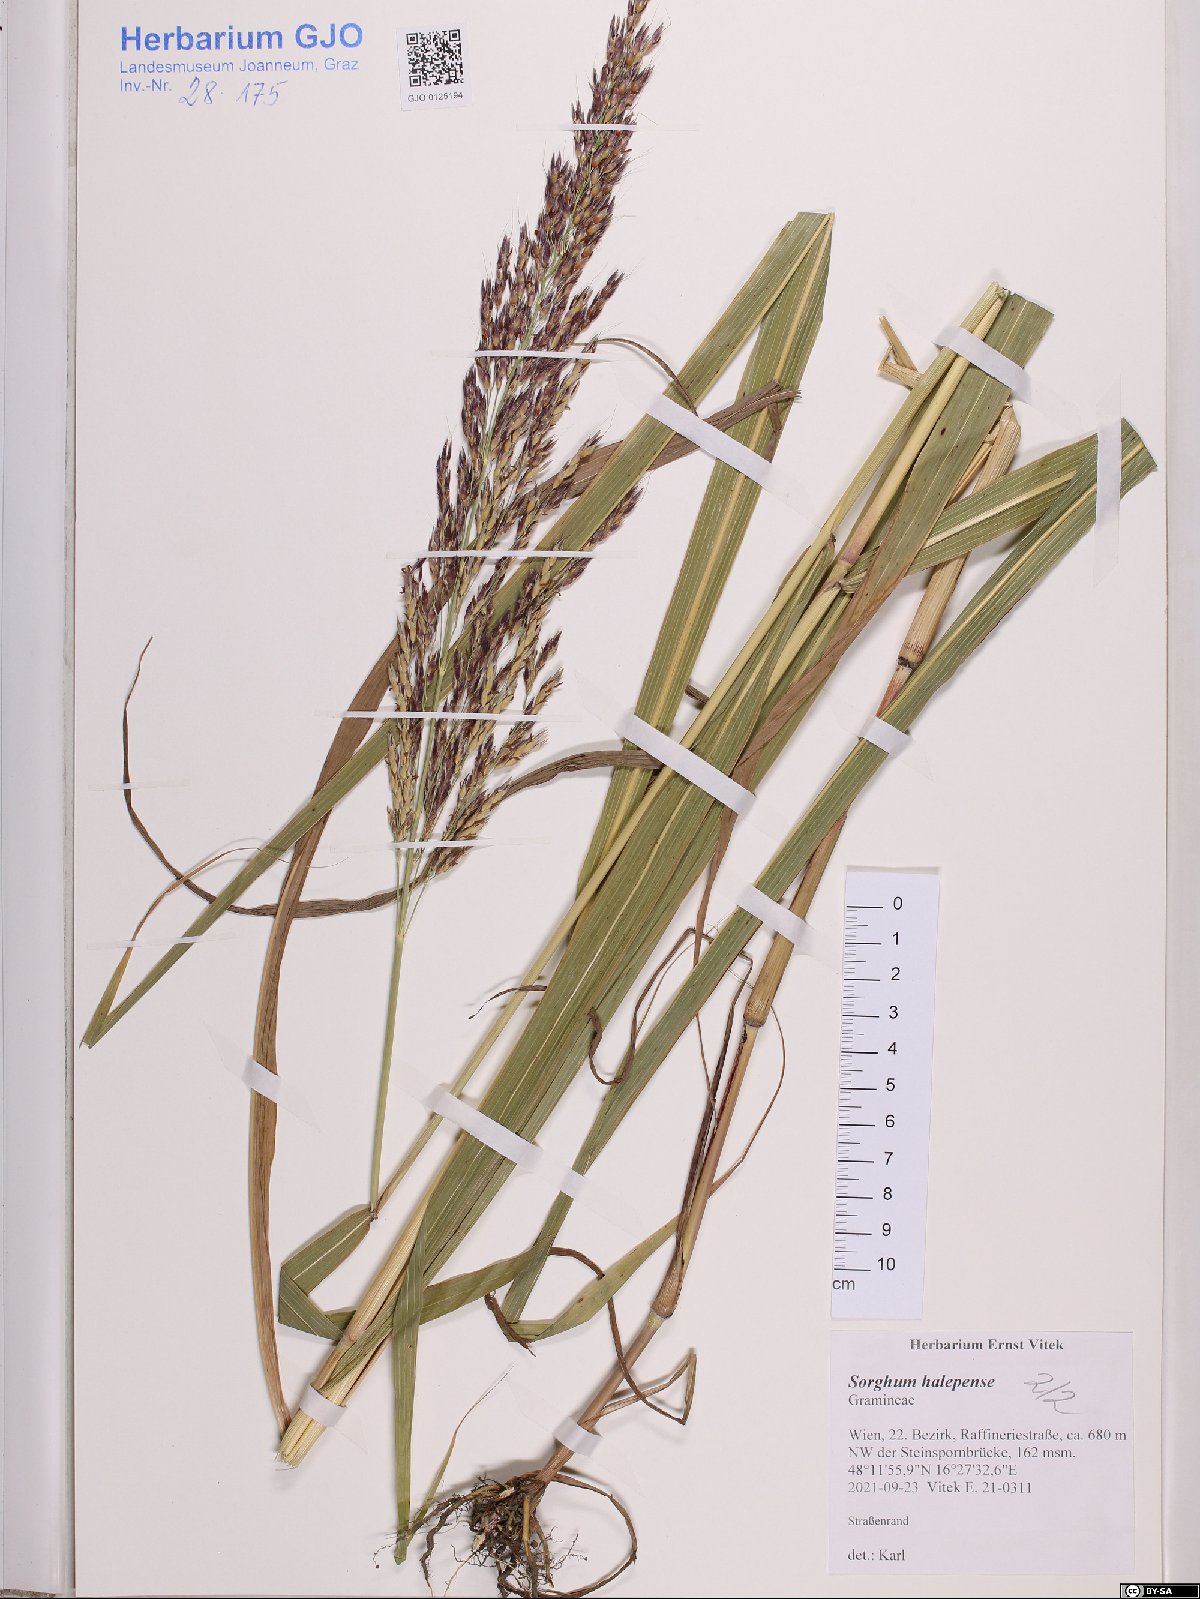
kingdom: Plantae
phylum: Tracheophyta
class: Liliopsida
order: Poales
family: Poaceae
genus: Sorghum
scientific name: Sorghum halepense
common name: Johnson-grass
